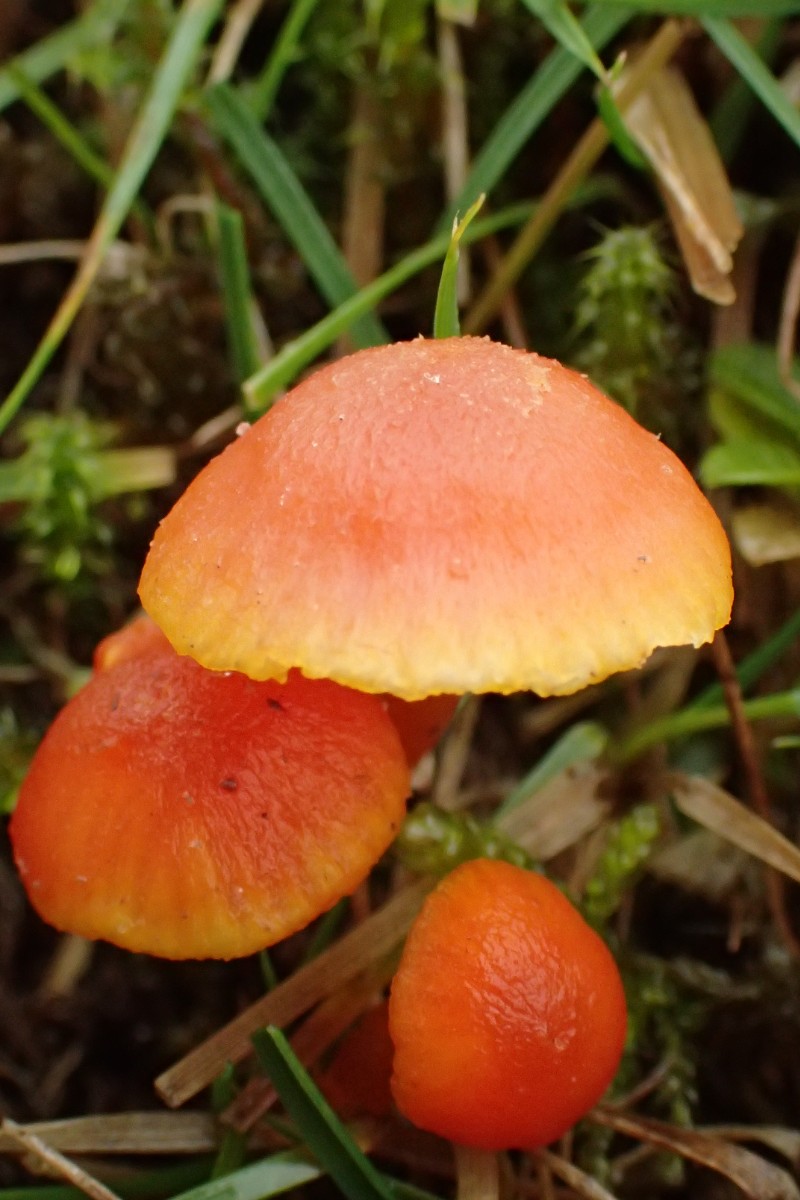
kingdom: Fungi
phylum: Basidiomycota
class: Agaricomycetes
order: Agaricales
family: Hygrophoraceae
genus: Hygrocybe
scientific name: Hygrocybe insipida
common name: liden vokshat
